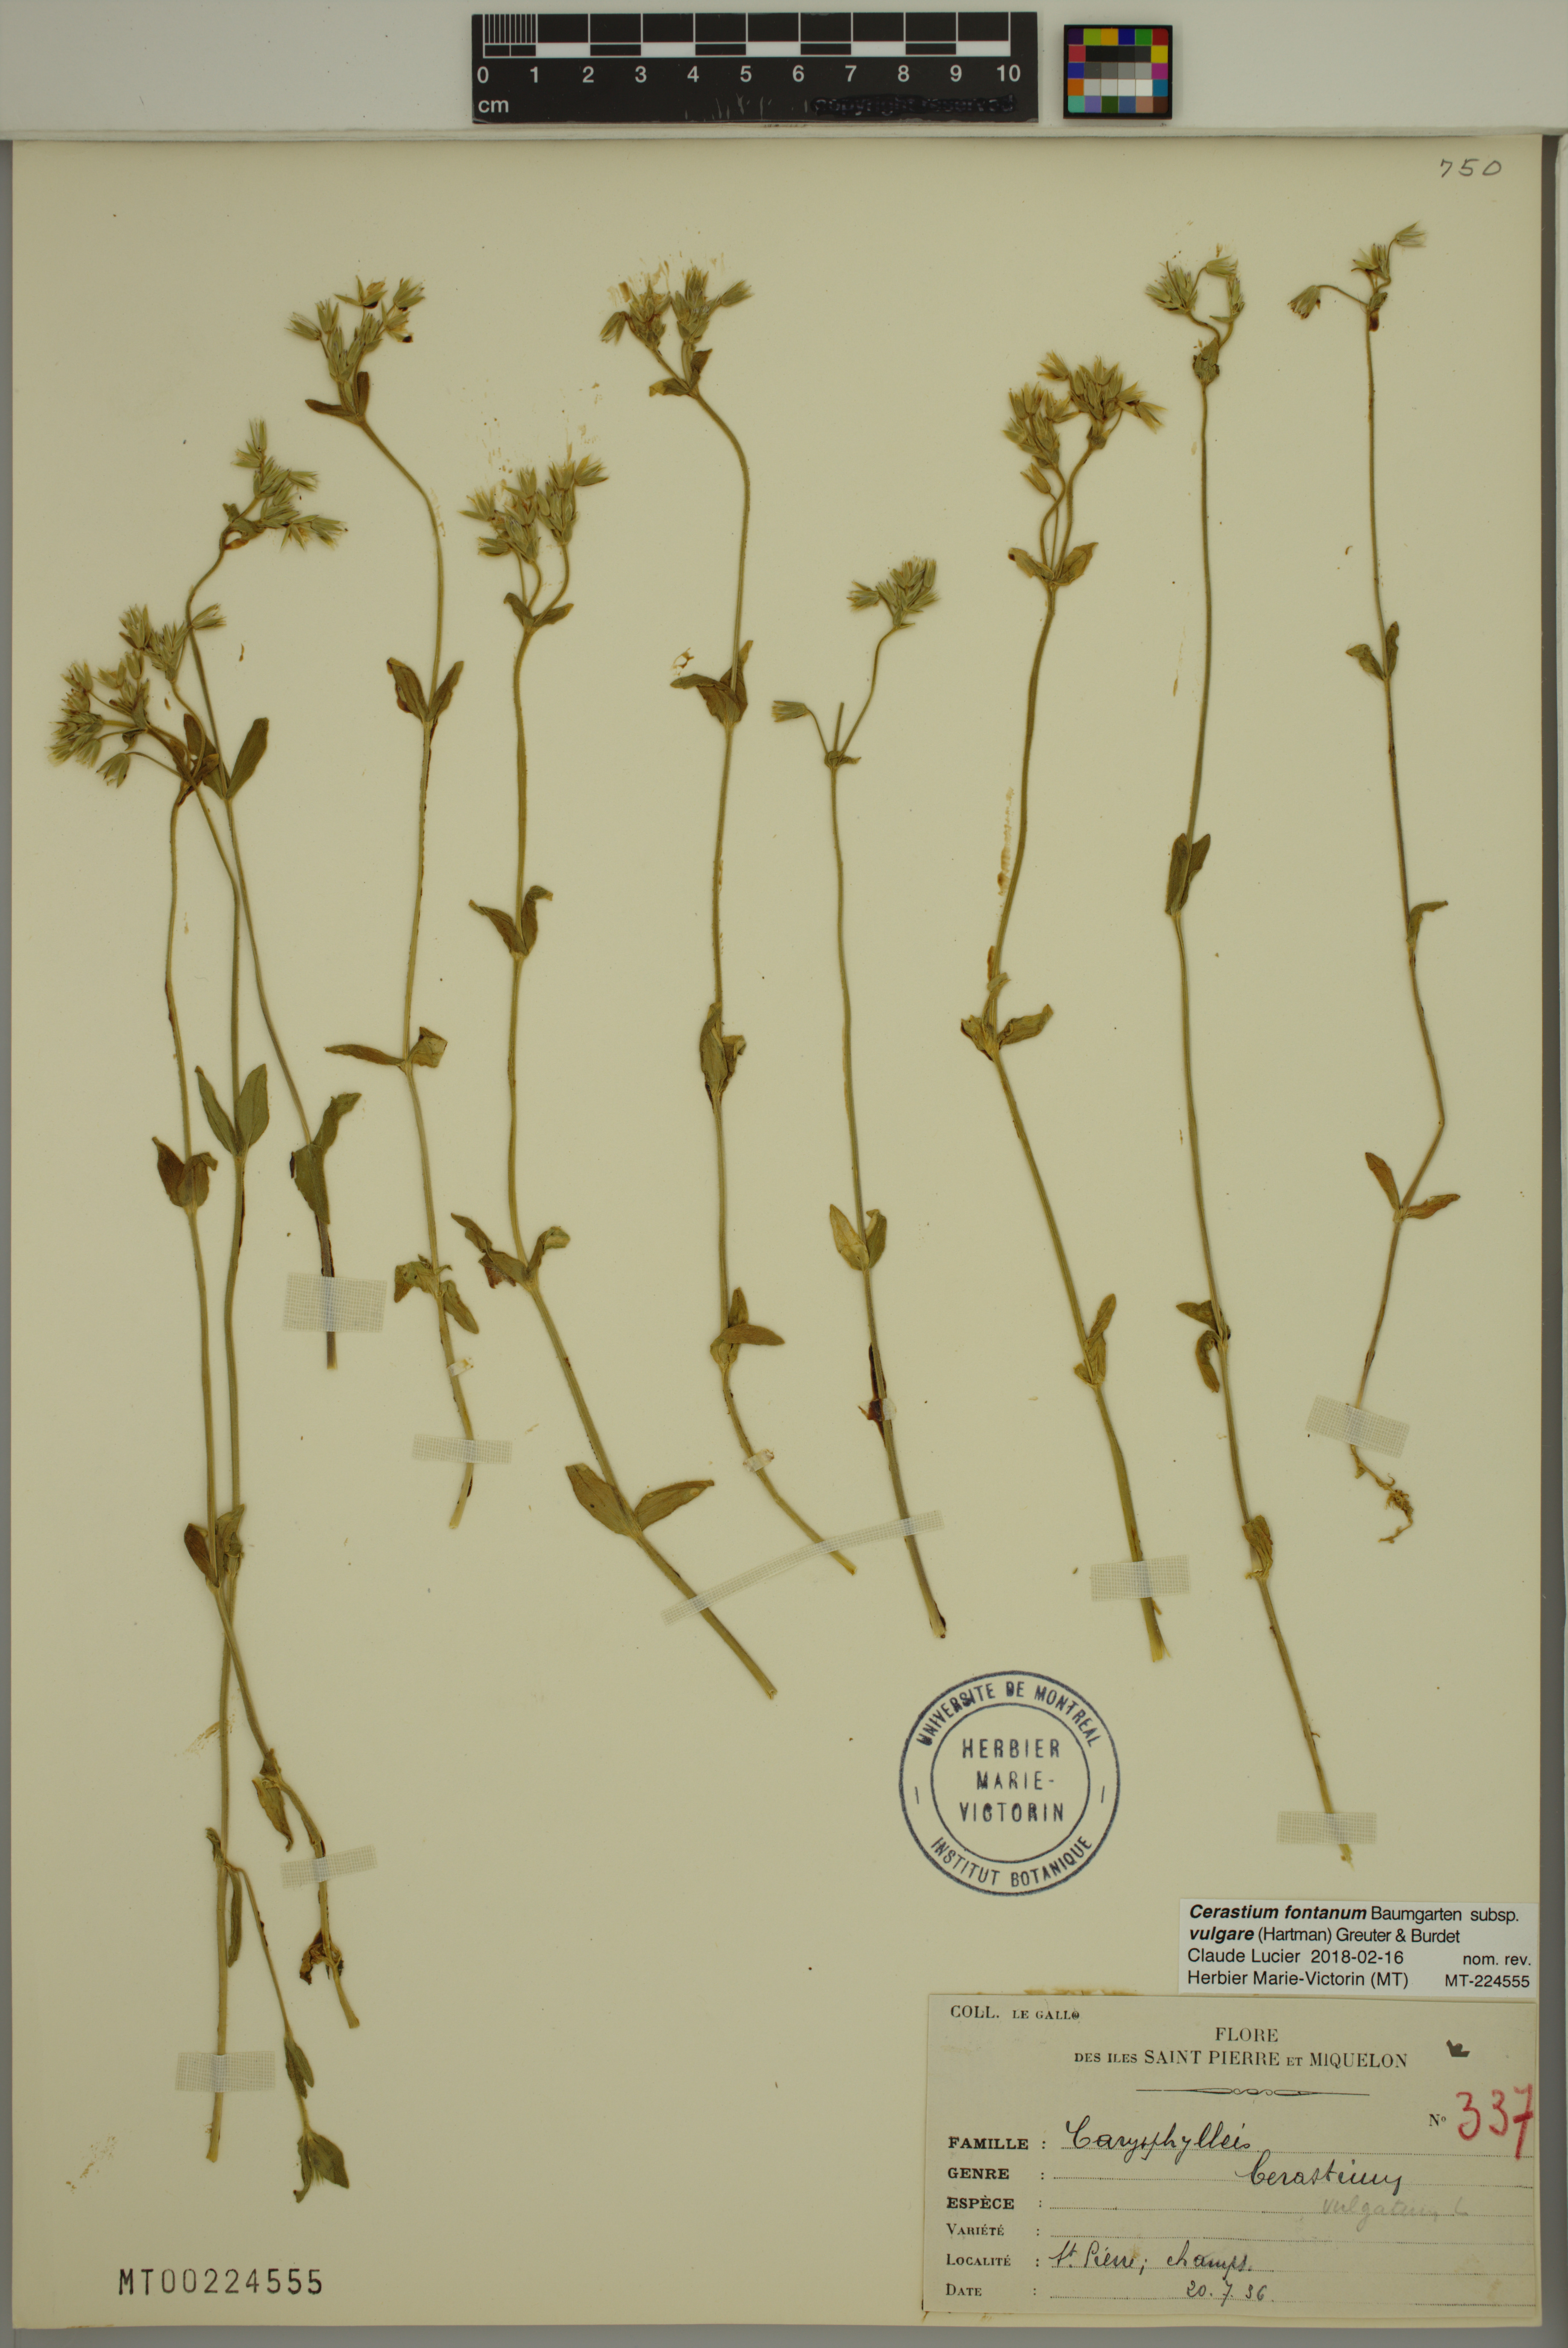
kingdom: Plantae
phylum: Tracheophyta
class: Magnoliopsida
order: Caryophyllales
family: Caryophyllaceae
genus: Cerastium
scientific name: Cerastium holosteoides
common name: Big chickweed
